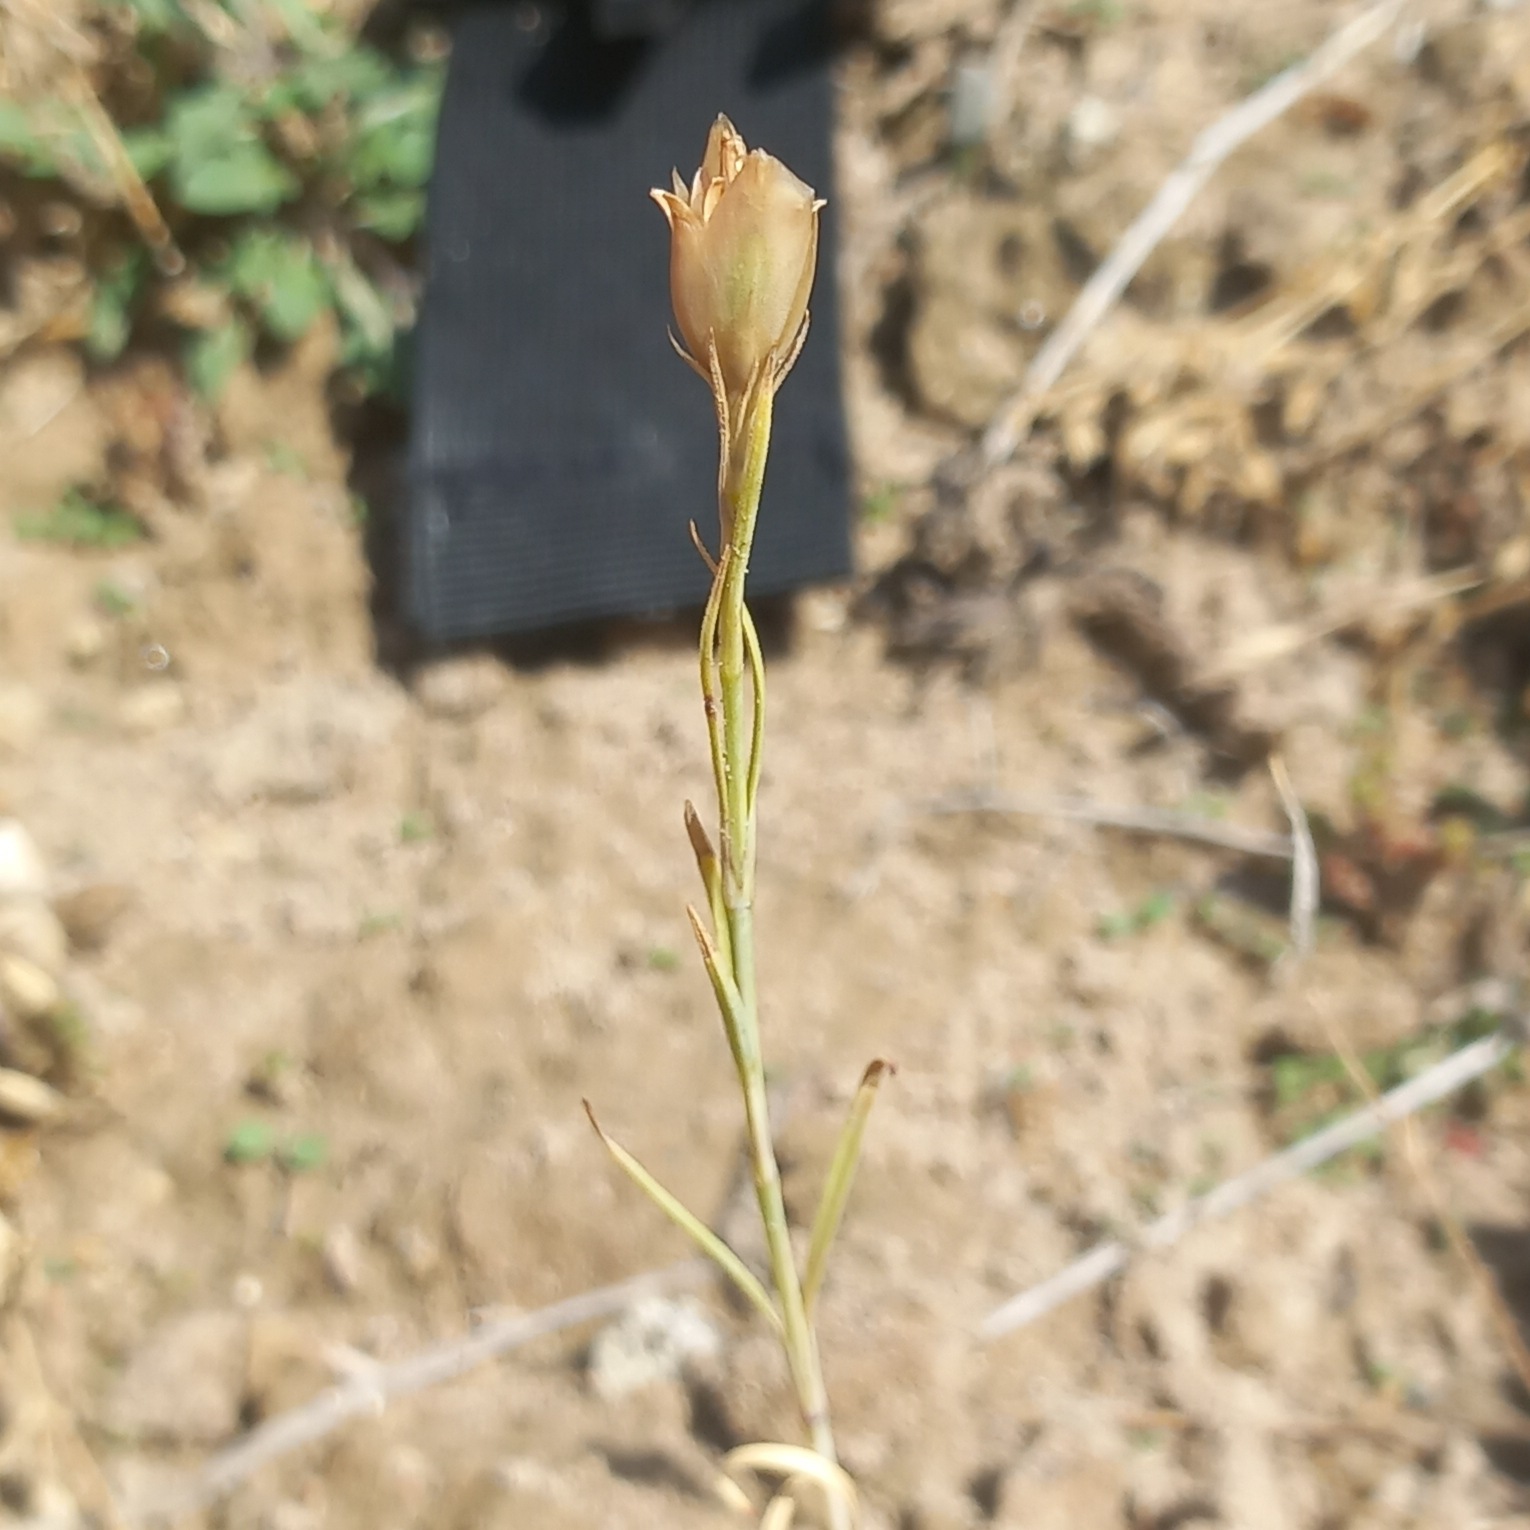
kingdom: Plantae
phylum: Tracheophyta
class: Magnoliopsida
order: Caryophyllales
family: Caryophyllaceae
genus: Petrorhagia
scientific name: Petrorhagia prolifera
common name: Knopnellike
